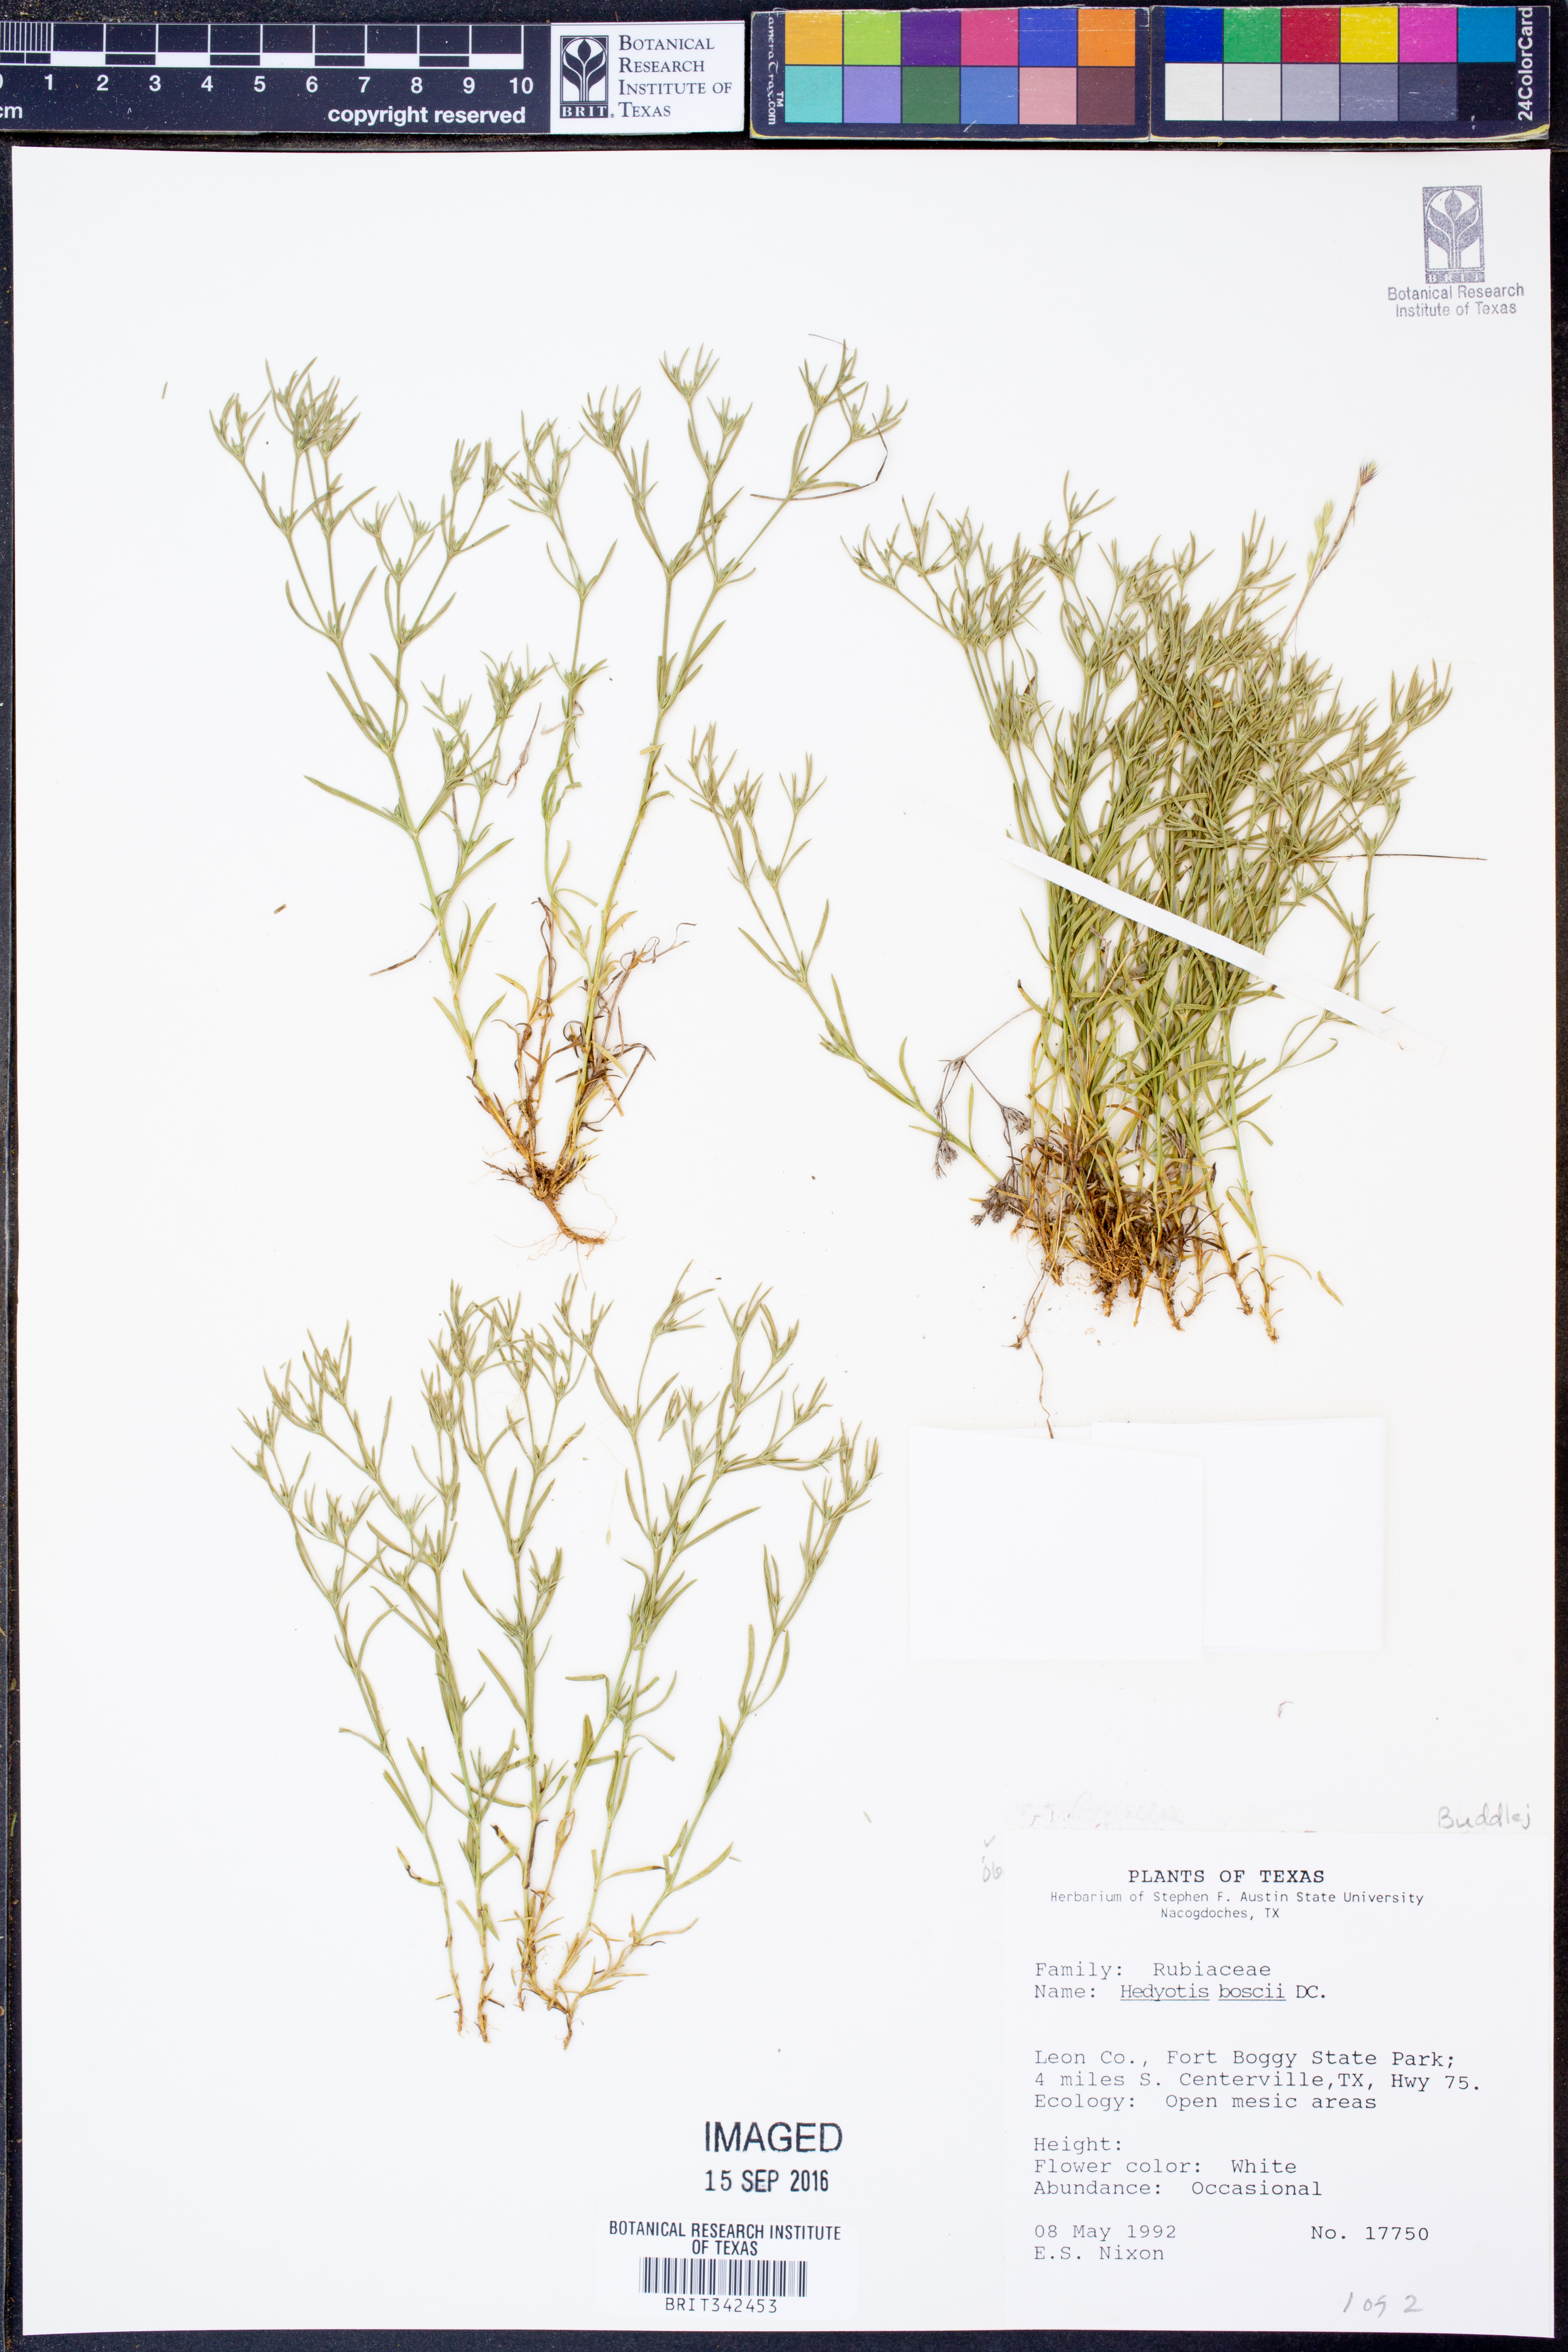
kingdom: Plantae
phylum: Tracheophyta
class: Magnoliopsida
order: Gentianales
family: Rubiaceae
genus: Oldenlandia
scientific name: Oldenlandia boscii
